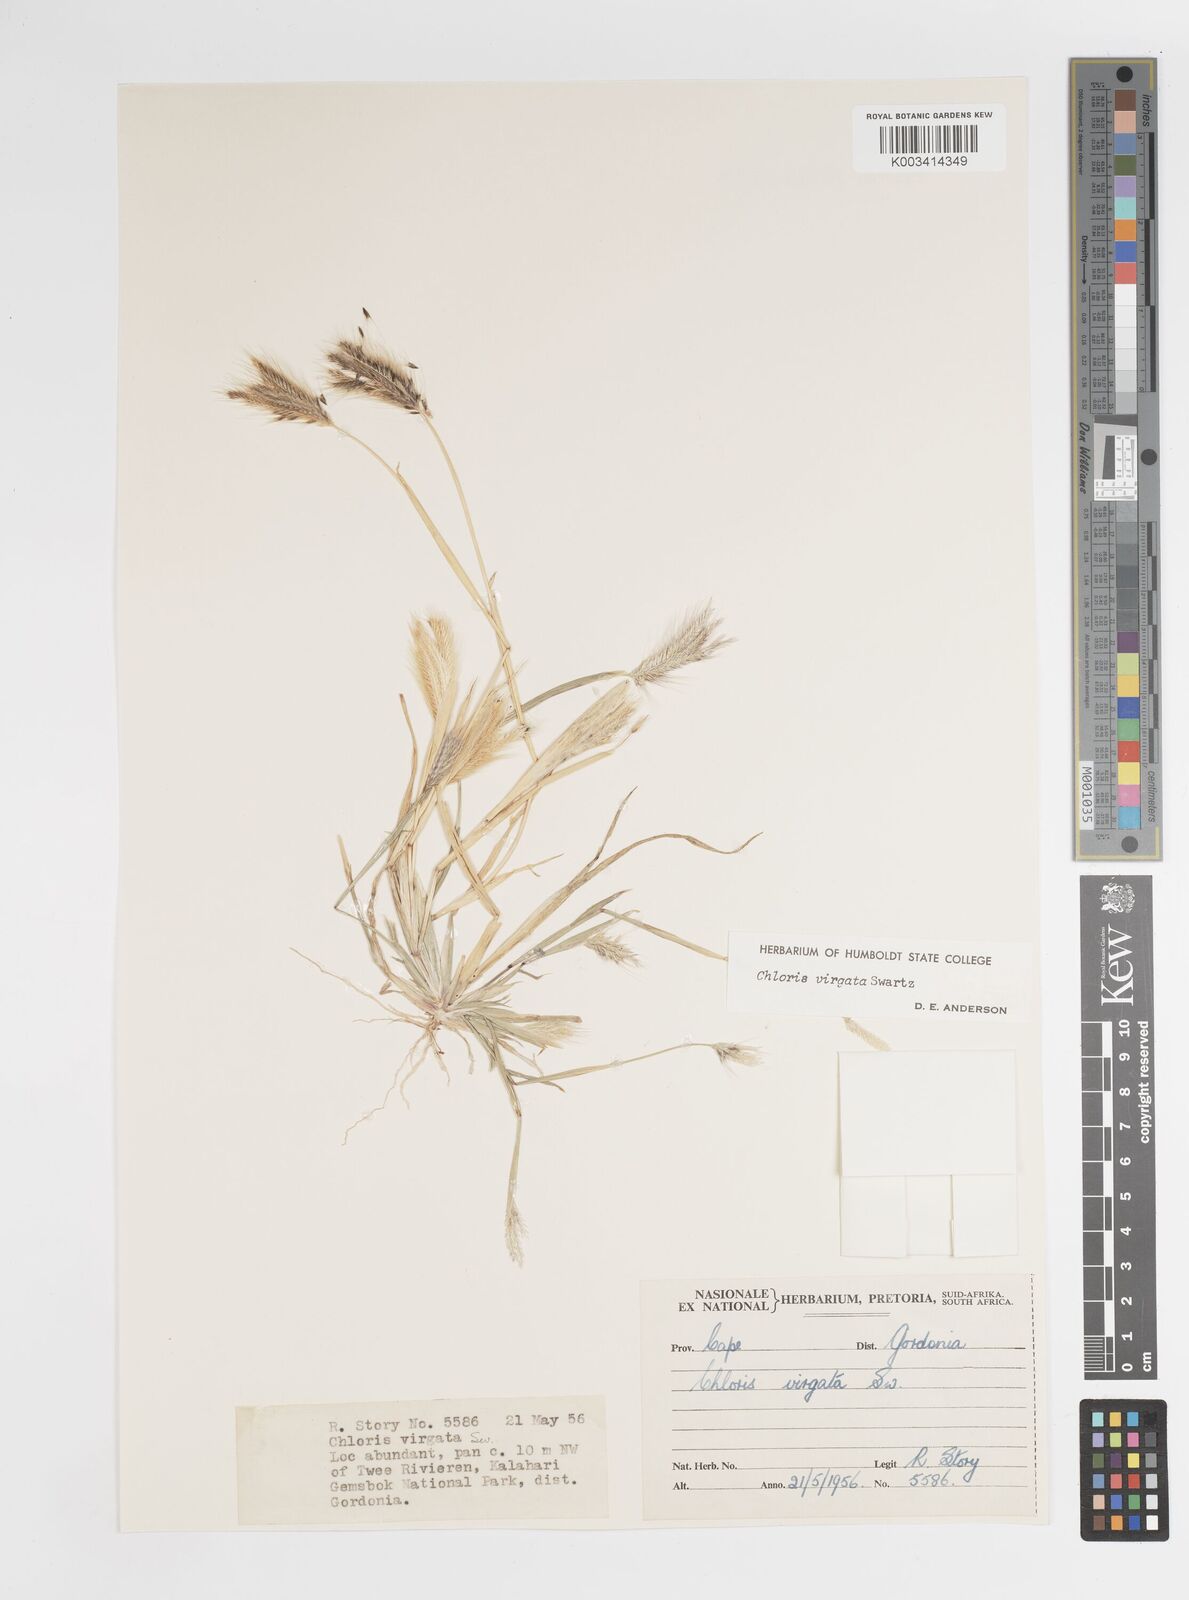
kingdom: Plantae
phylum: Tracheophyta
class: Liliopsida
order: Poales
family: Poaceae
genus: Chloris
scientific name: Chloris virgata
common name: Feathery rhodes-grass
